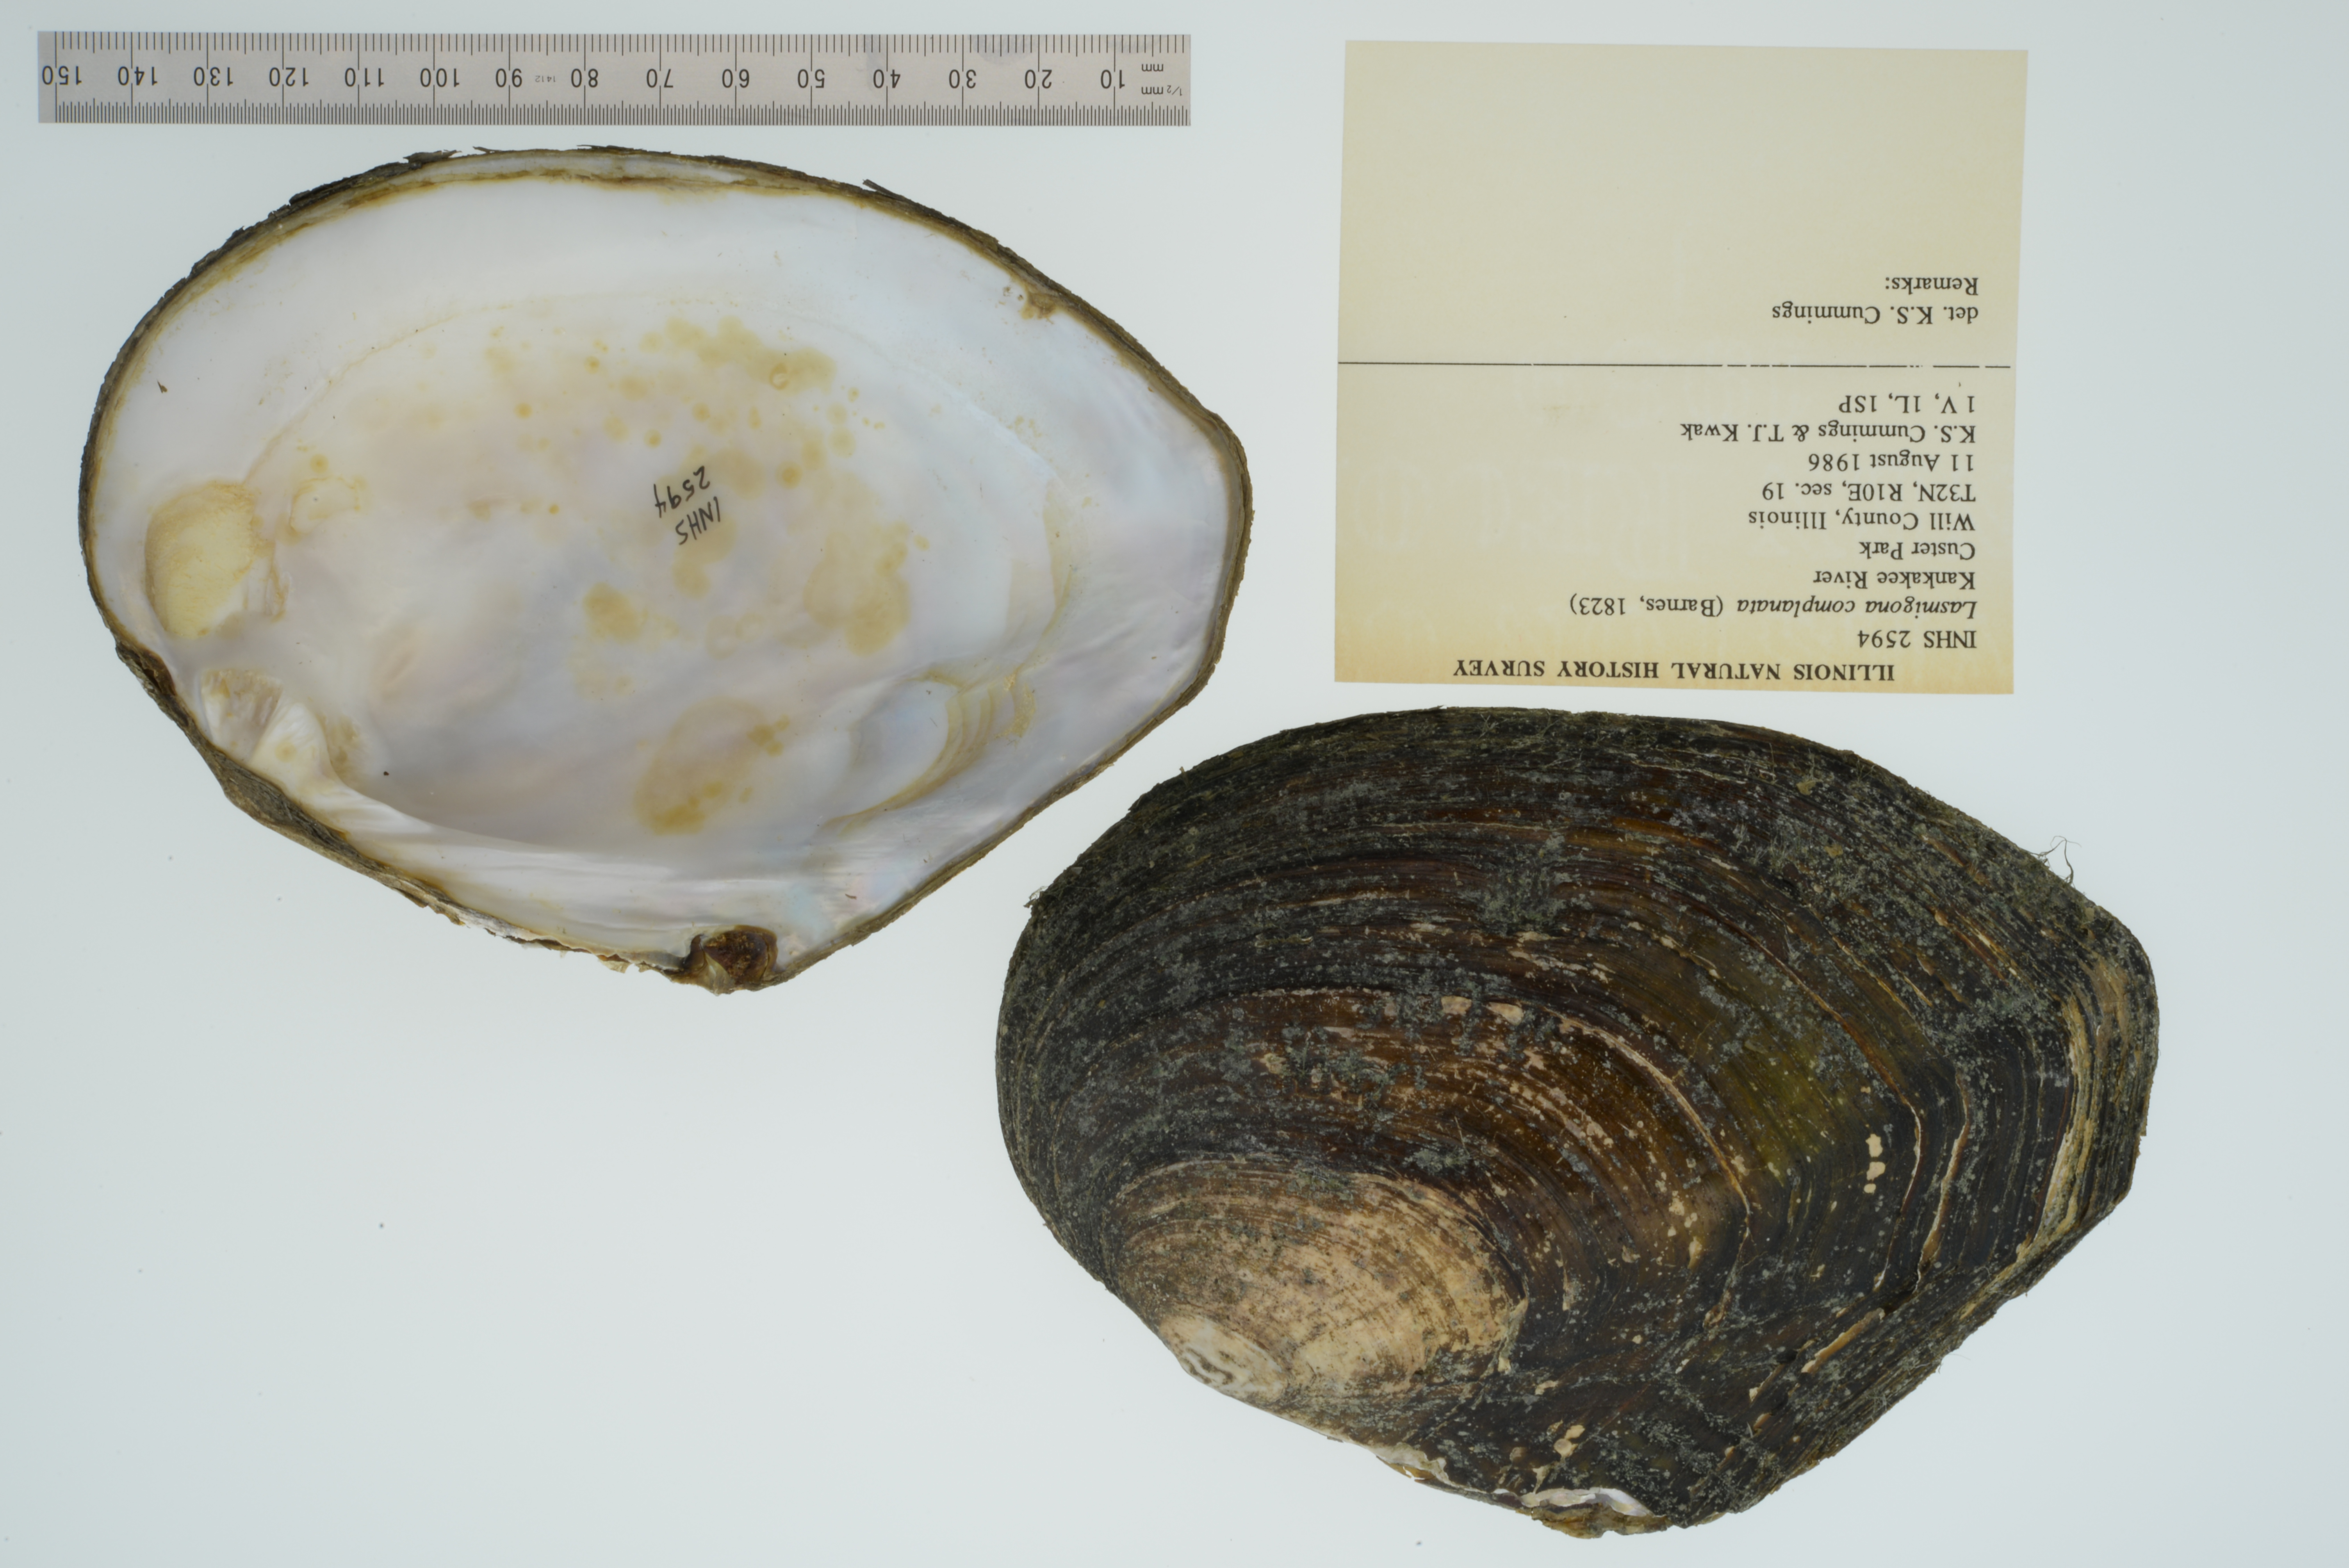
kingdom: Animalia
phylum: Mollusca
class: Bivalvia
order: Unionida
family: Unionidae
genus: Lasmigona
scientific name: Lasmigona complanata
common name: White heelsplitter
